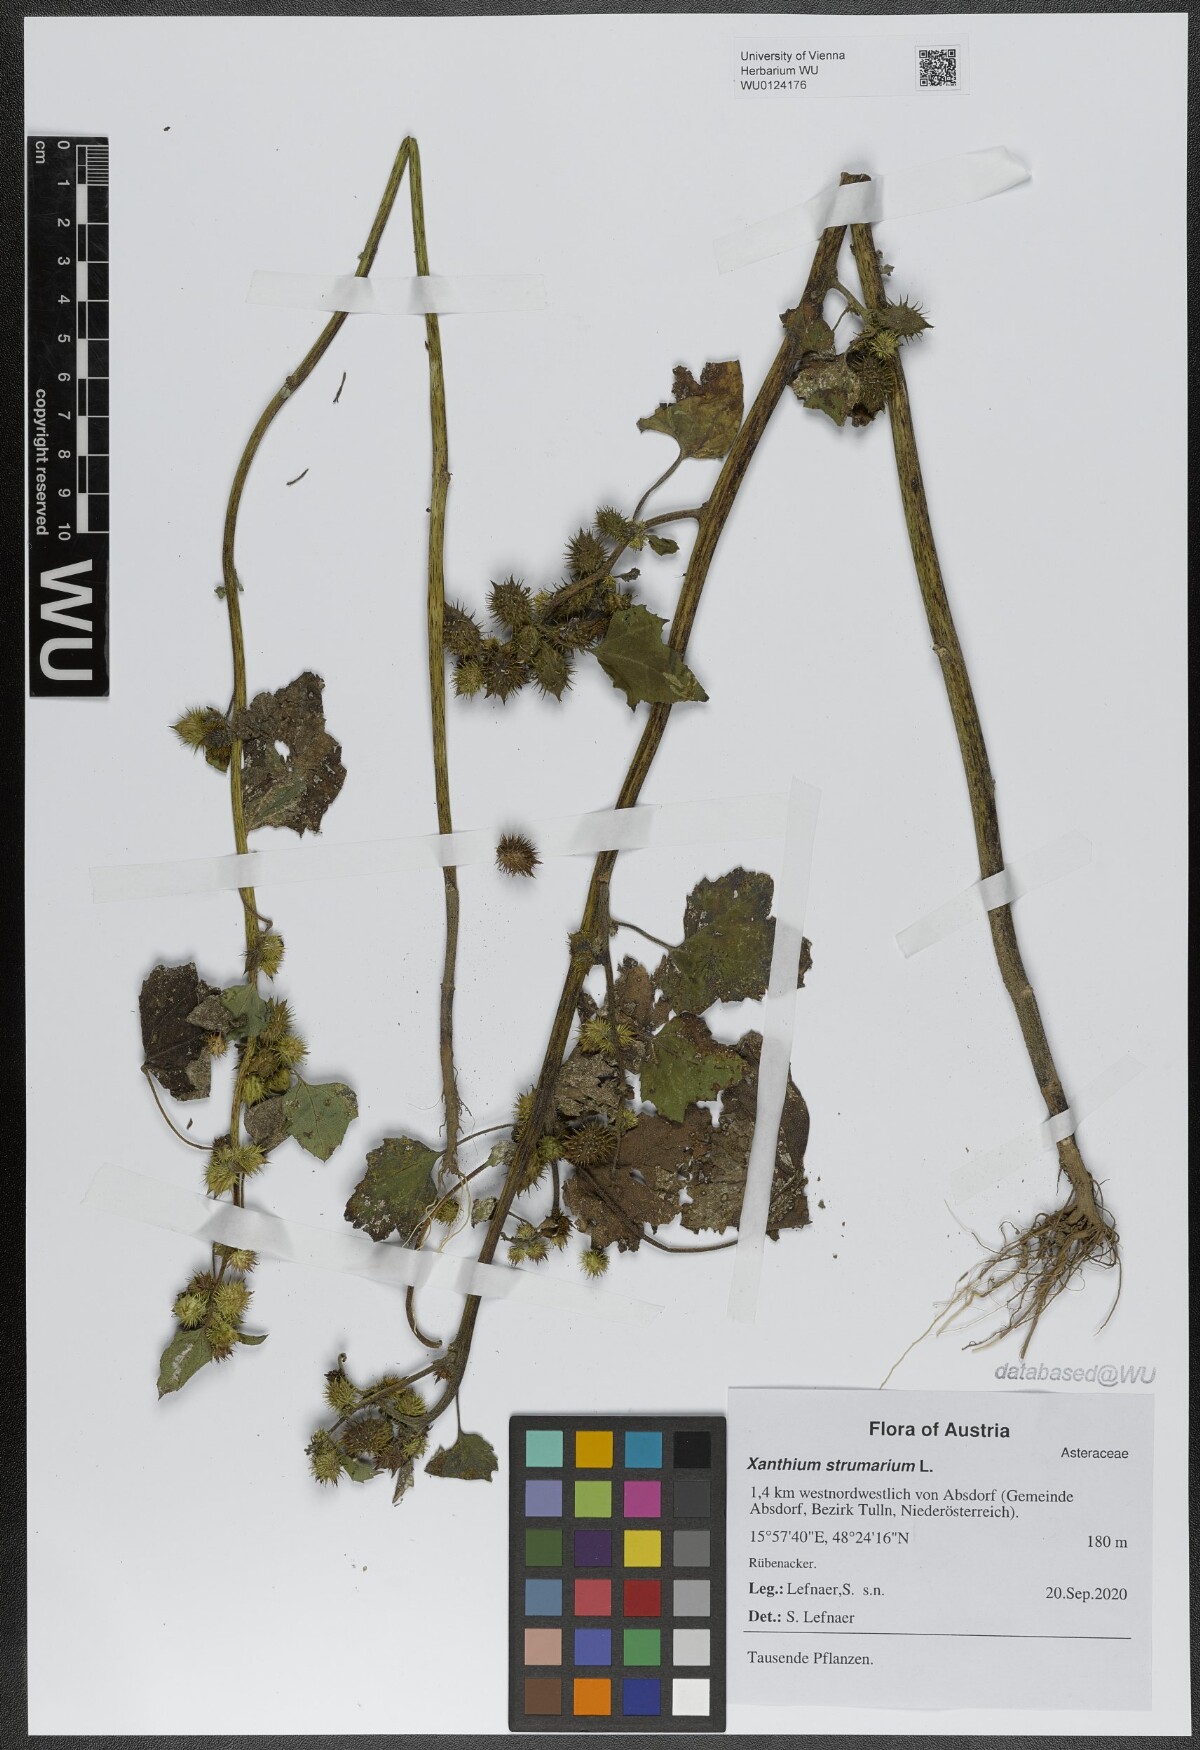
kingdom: Plantae
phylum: Tracheophyta
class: Magnoliopsida
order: Asterales
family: Asteraceae
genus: Xanthium
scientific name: Xanthium strumarium
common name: Rough cocklebur
